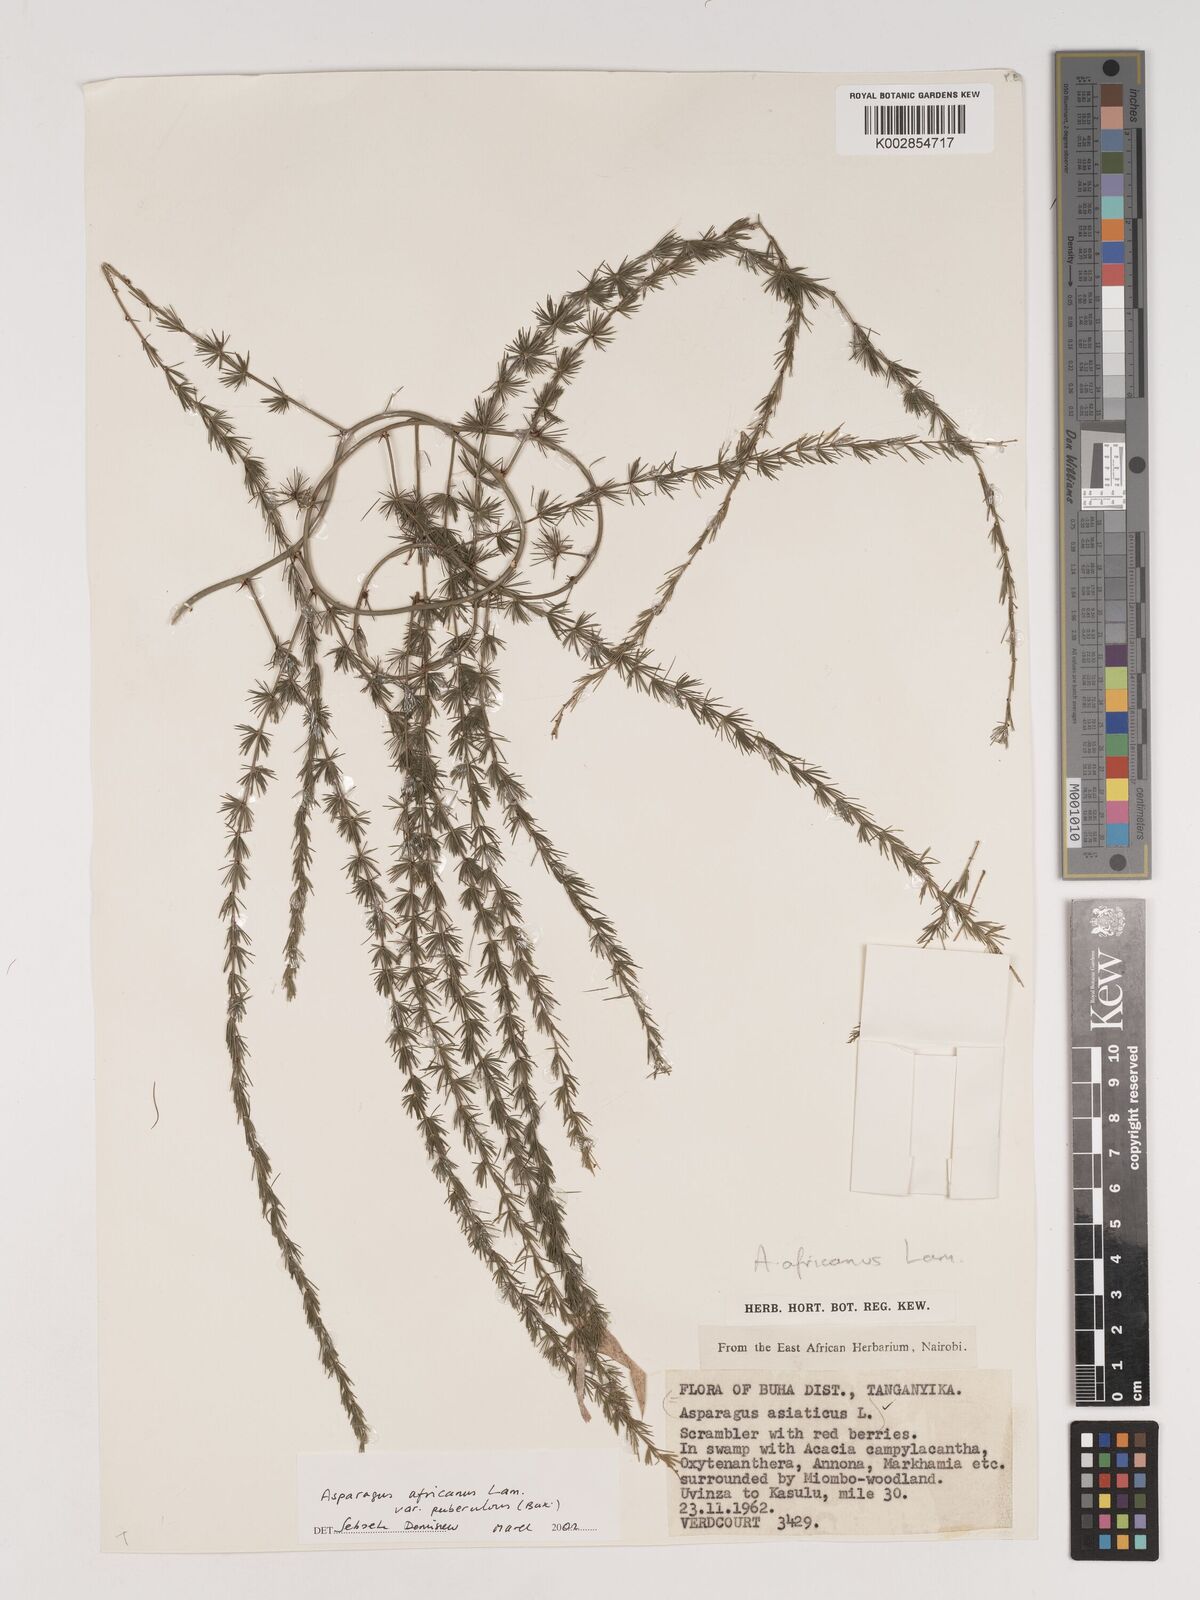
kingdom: Plantae
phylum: Tracheophyta
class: Liliopsida
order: Asparagales
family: Asparagaceae
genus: Asparagus
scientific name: Asparagus africanus
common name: Asparagus-fern
